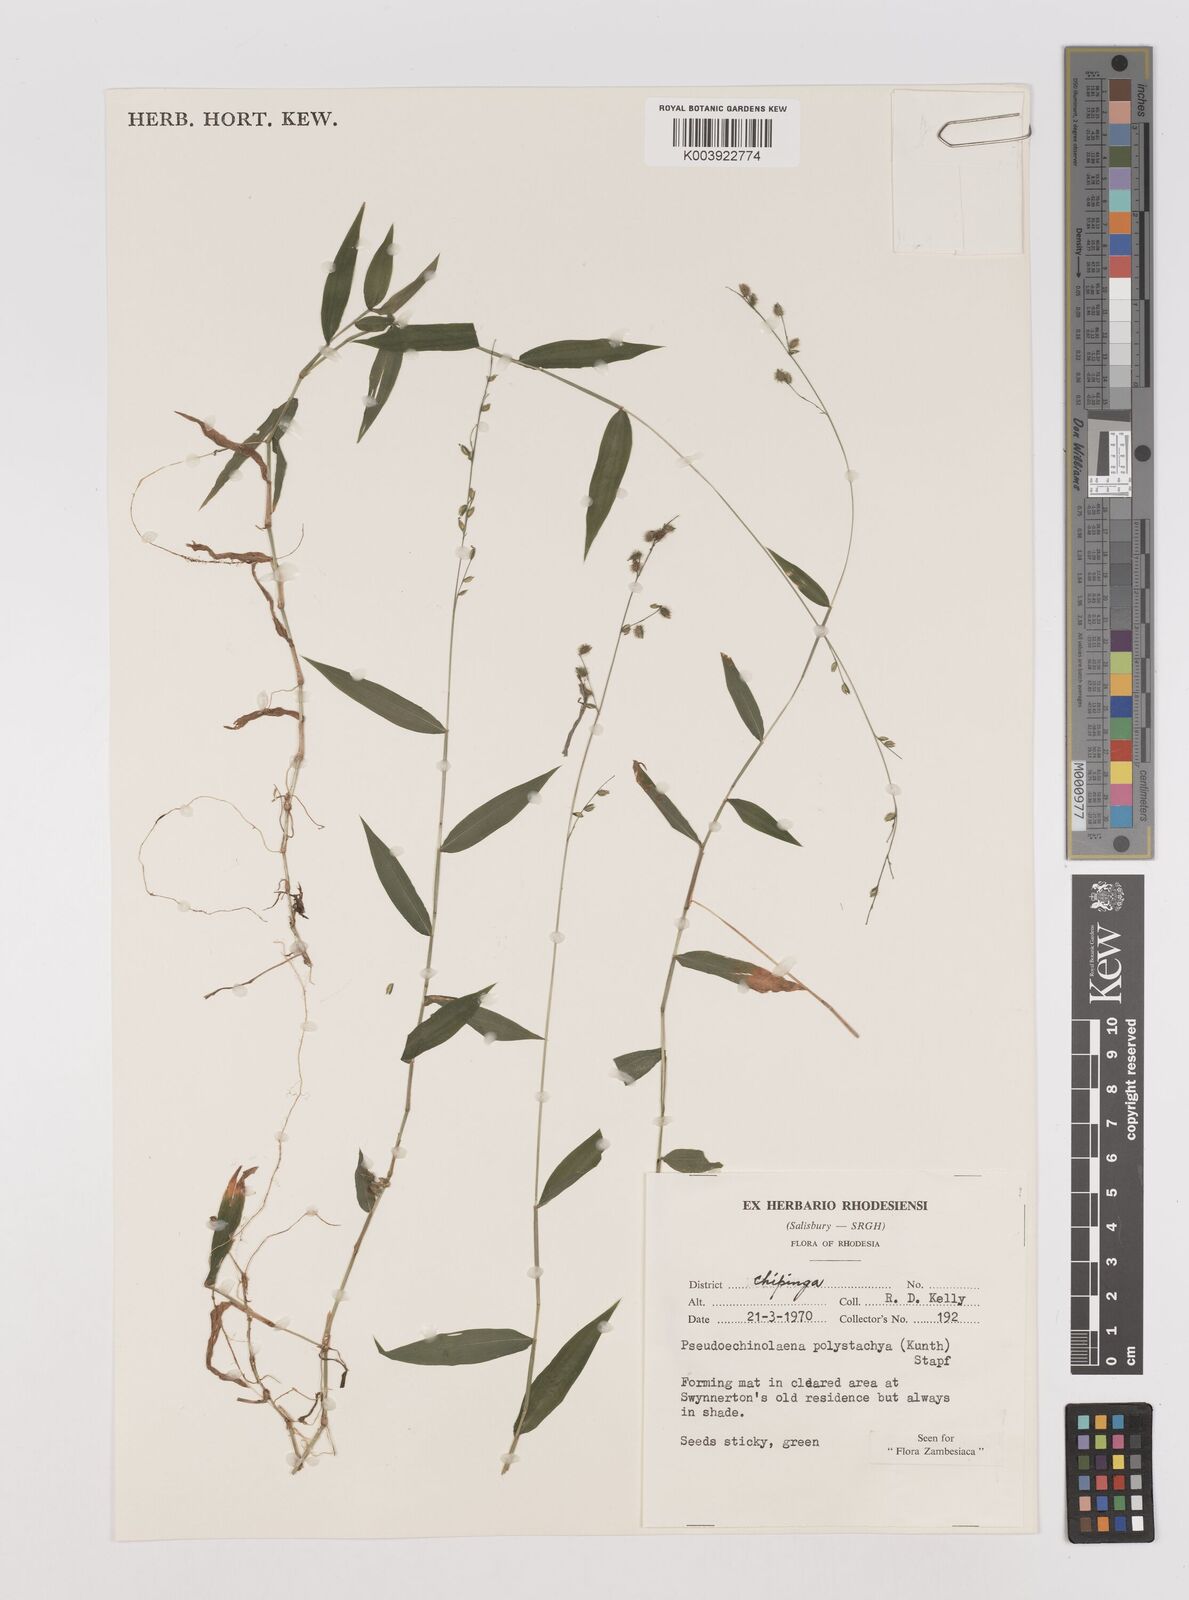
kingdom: Plantae
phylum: Tracheophyta
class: Liliopsida
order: Poales
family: Poaceae
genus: Pseudechinolaena
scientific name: Pseudechinolaena polystachya
